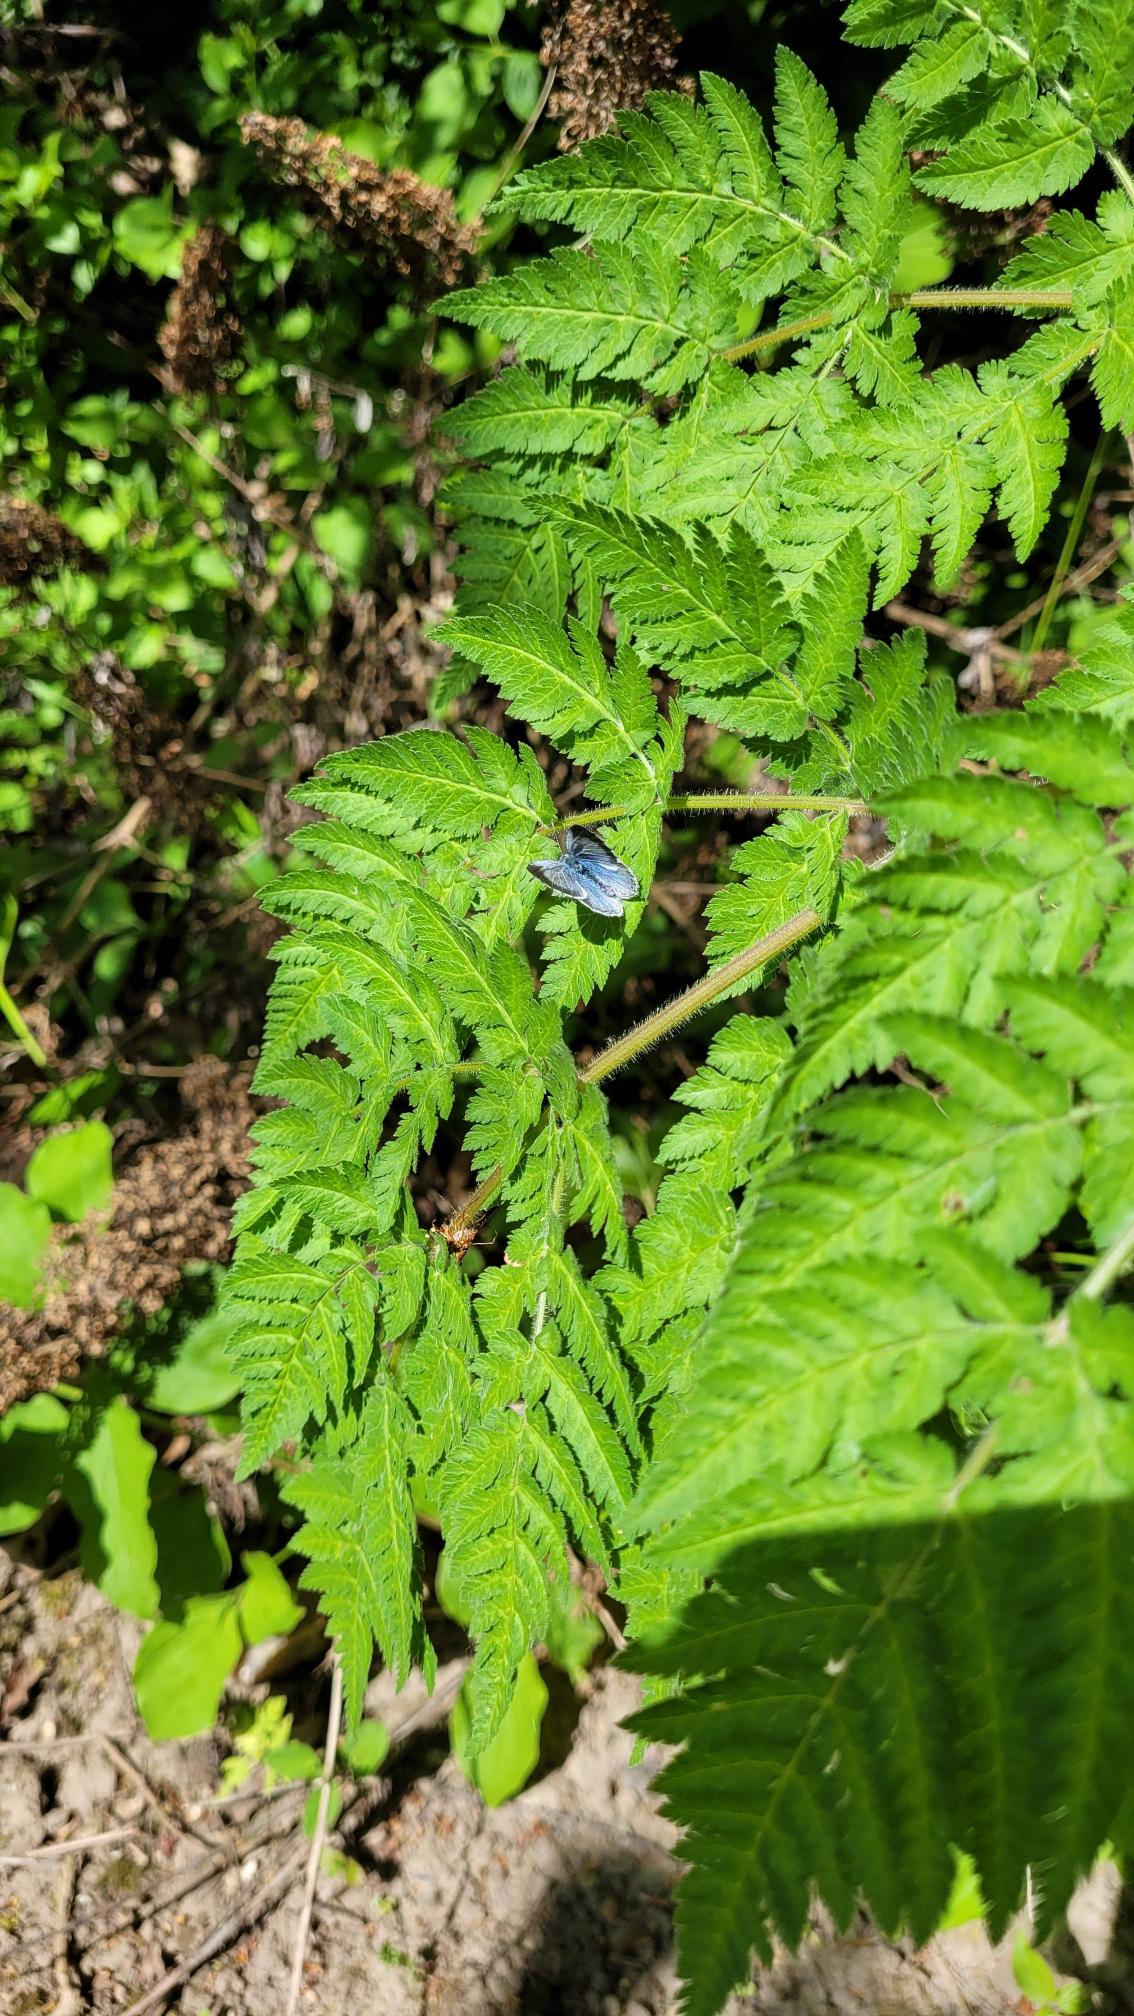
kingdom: Animalia
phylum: Arthropoda
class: Insecta
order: Lepidoptera
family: Lycaenidae
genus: Celastrina
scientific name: Celastrina argiolus
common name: Skovblåfugl
